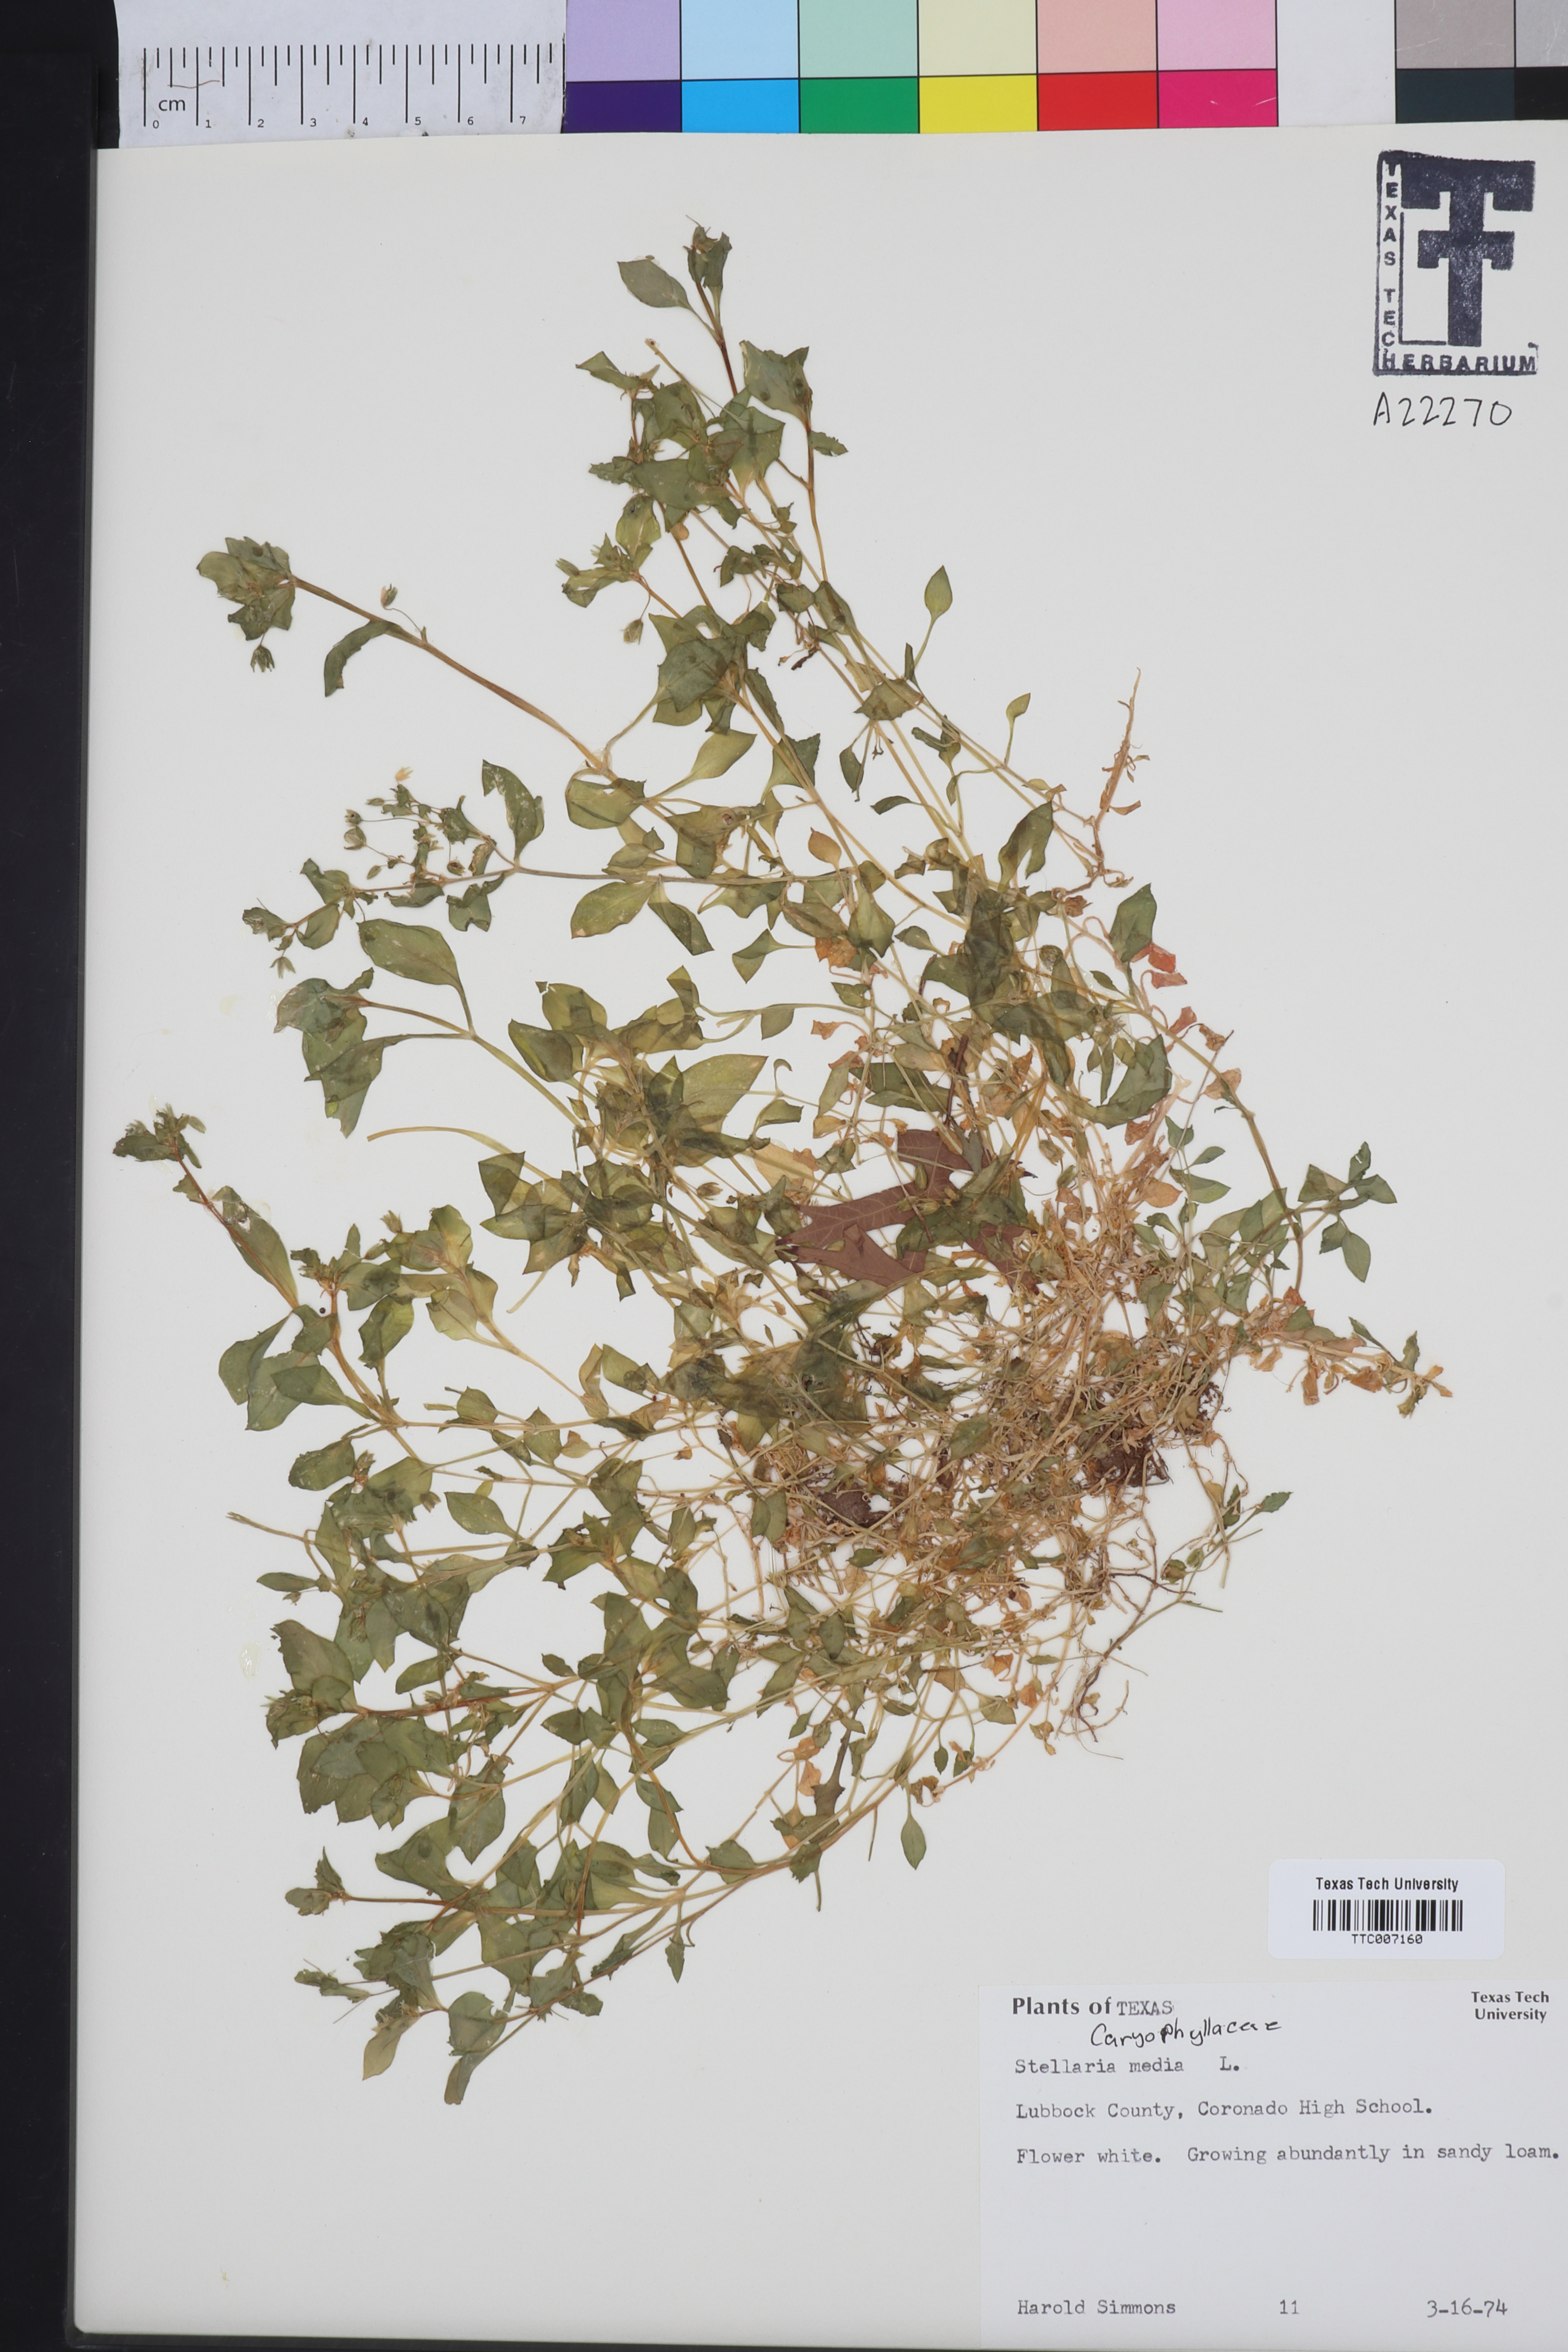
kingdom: Plantae
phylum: Tracheophyta
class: Magnoliopsida
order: Caryophyllales
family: Caryophyllaceae
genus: Stellaria
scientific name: Stellaria media
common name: Common chickweed
